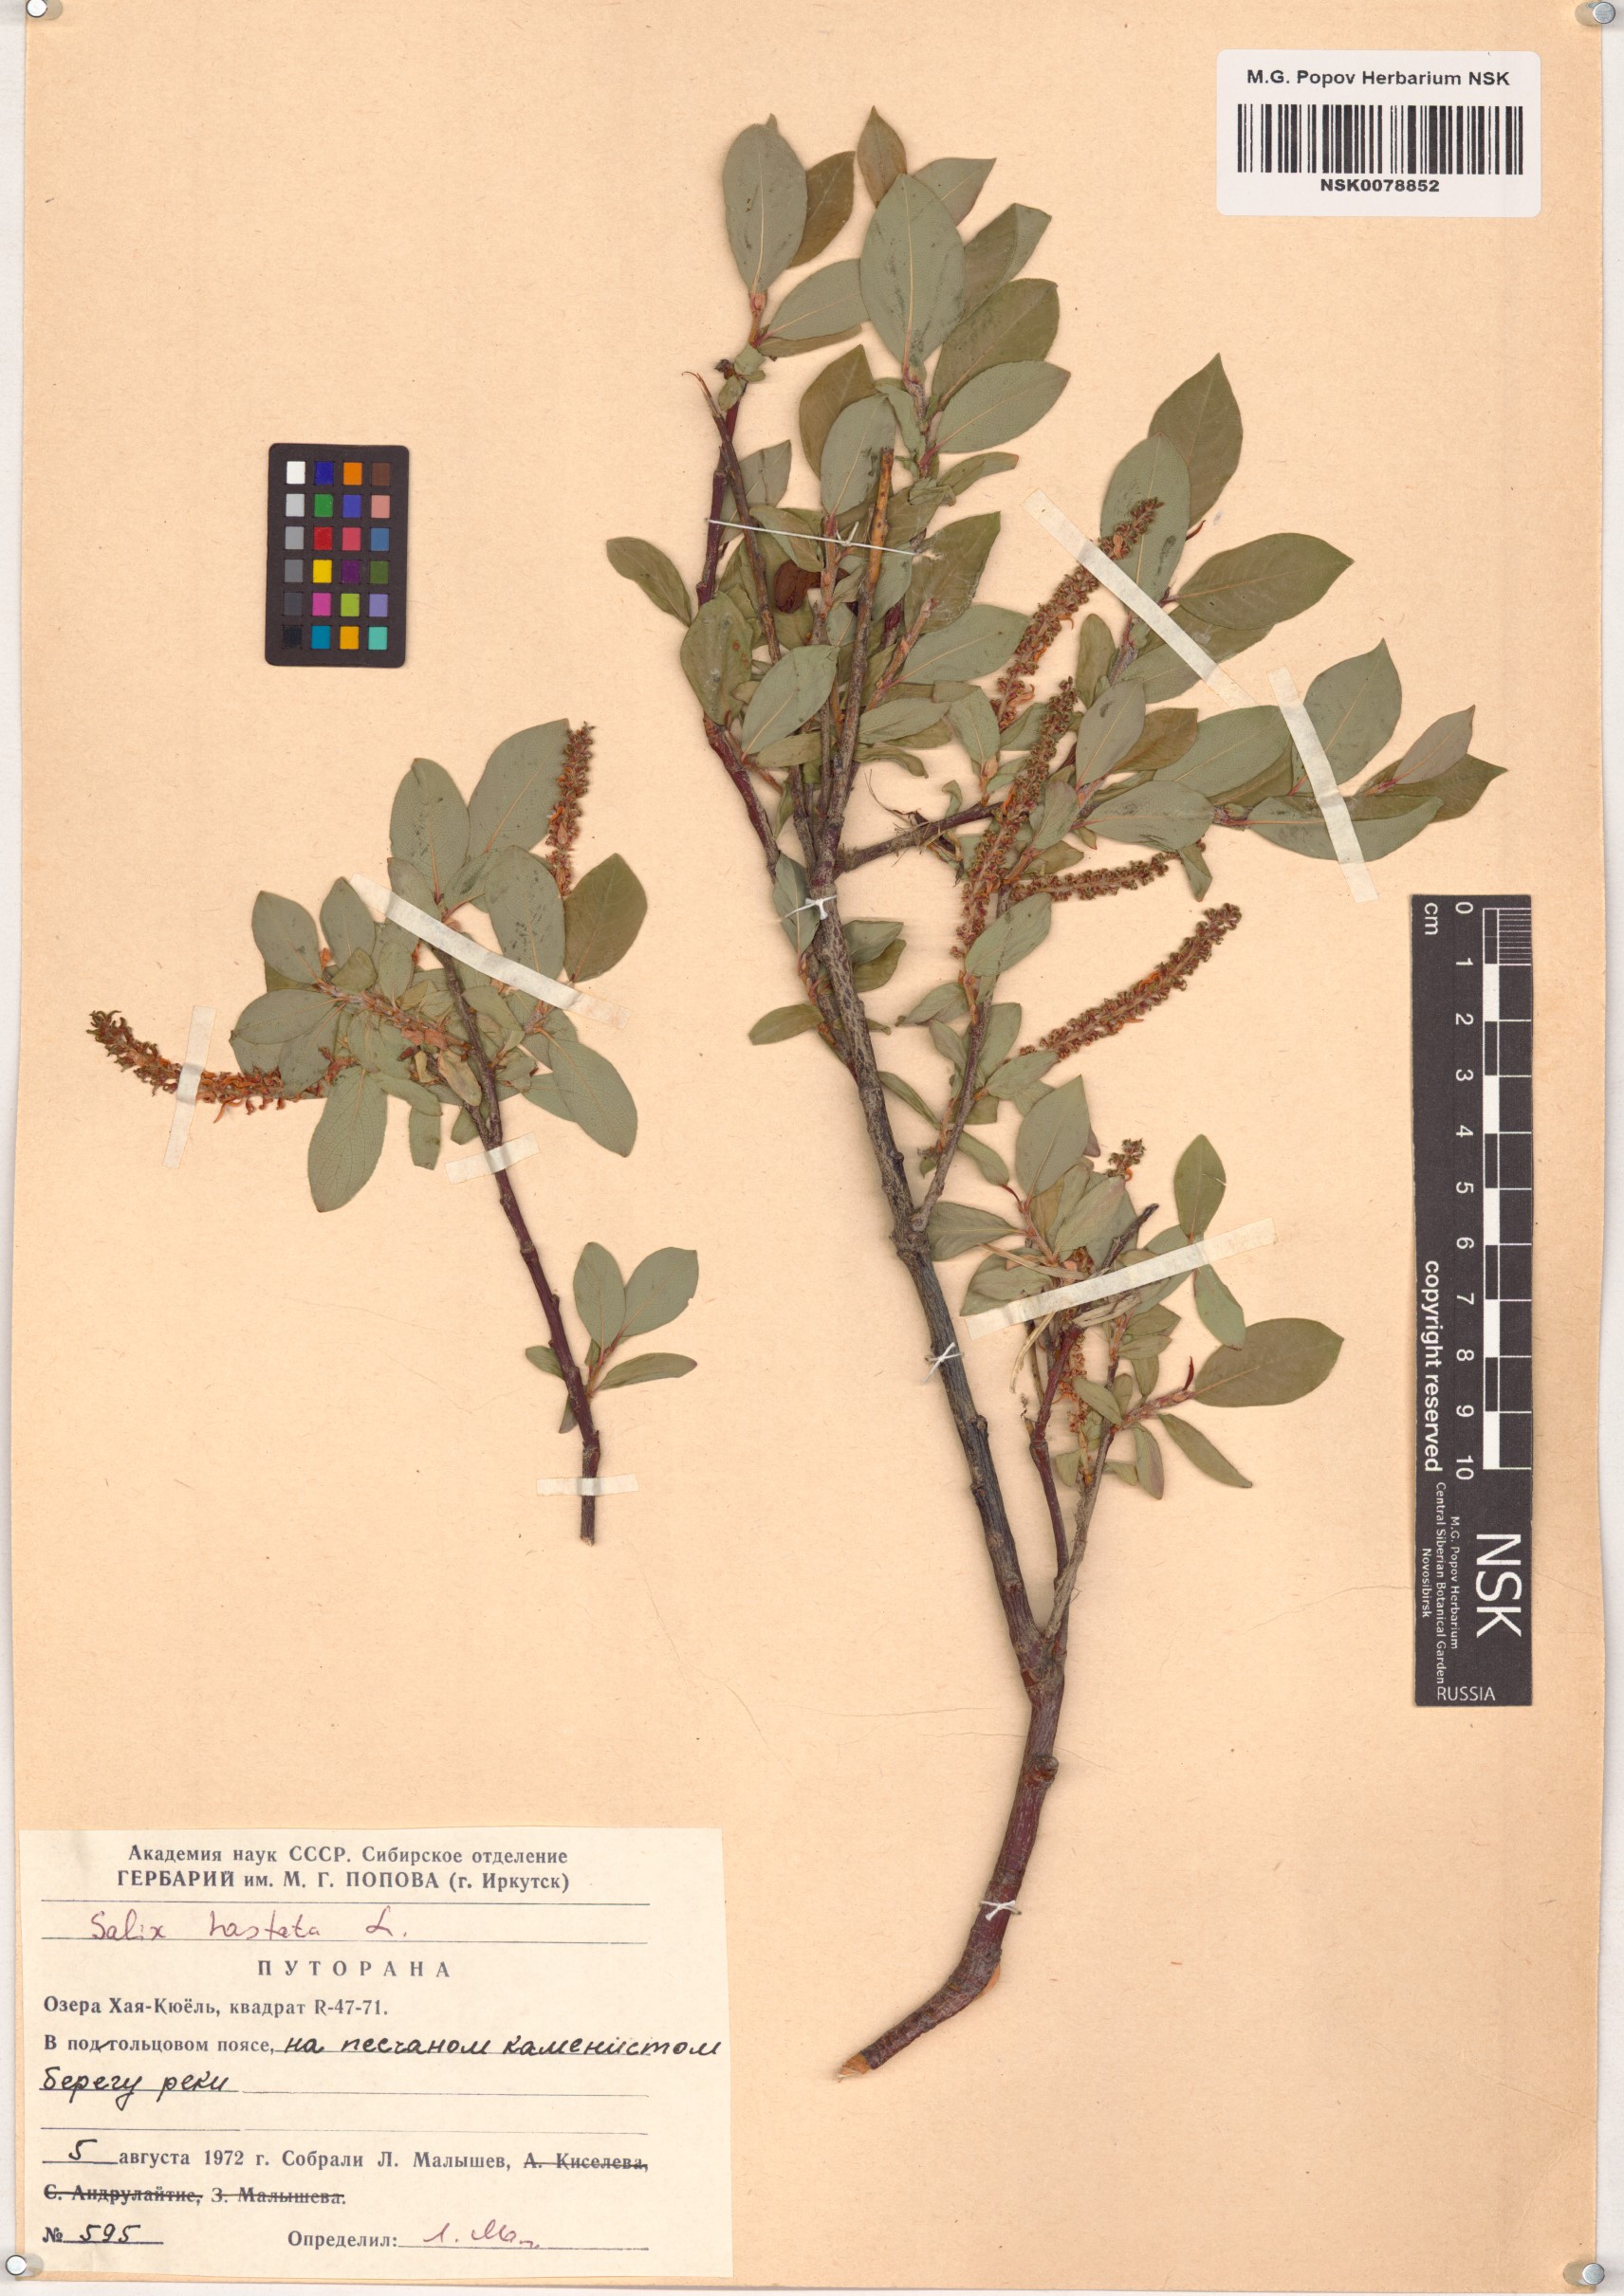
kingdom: Plantae
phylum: Tracheophyta
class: Magnoliopsida
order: Malpighiales
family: Salicaceae
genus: Salix
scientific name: Salix hastata
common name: Halberd willow
